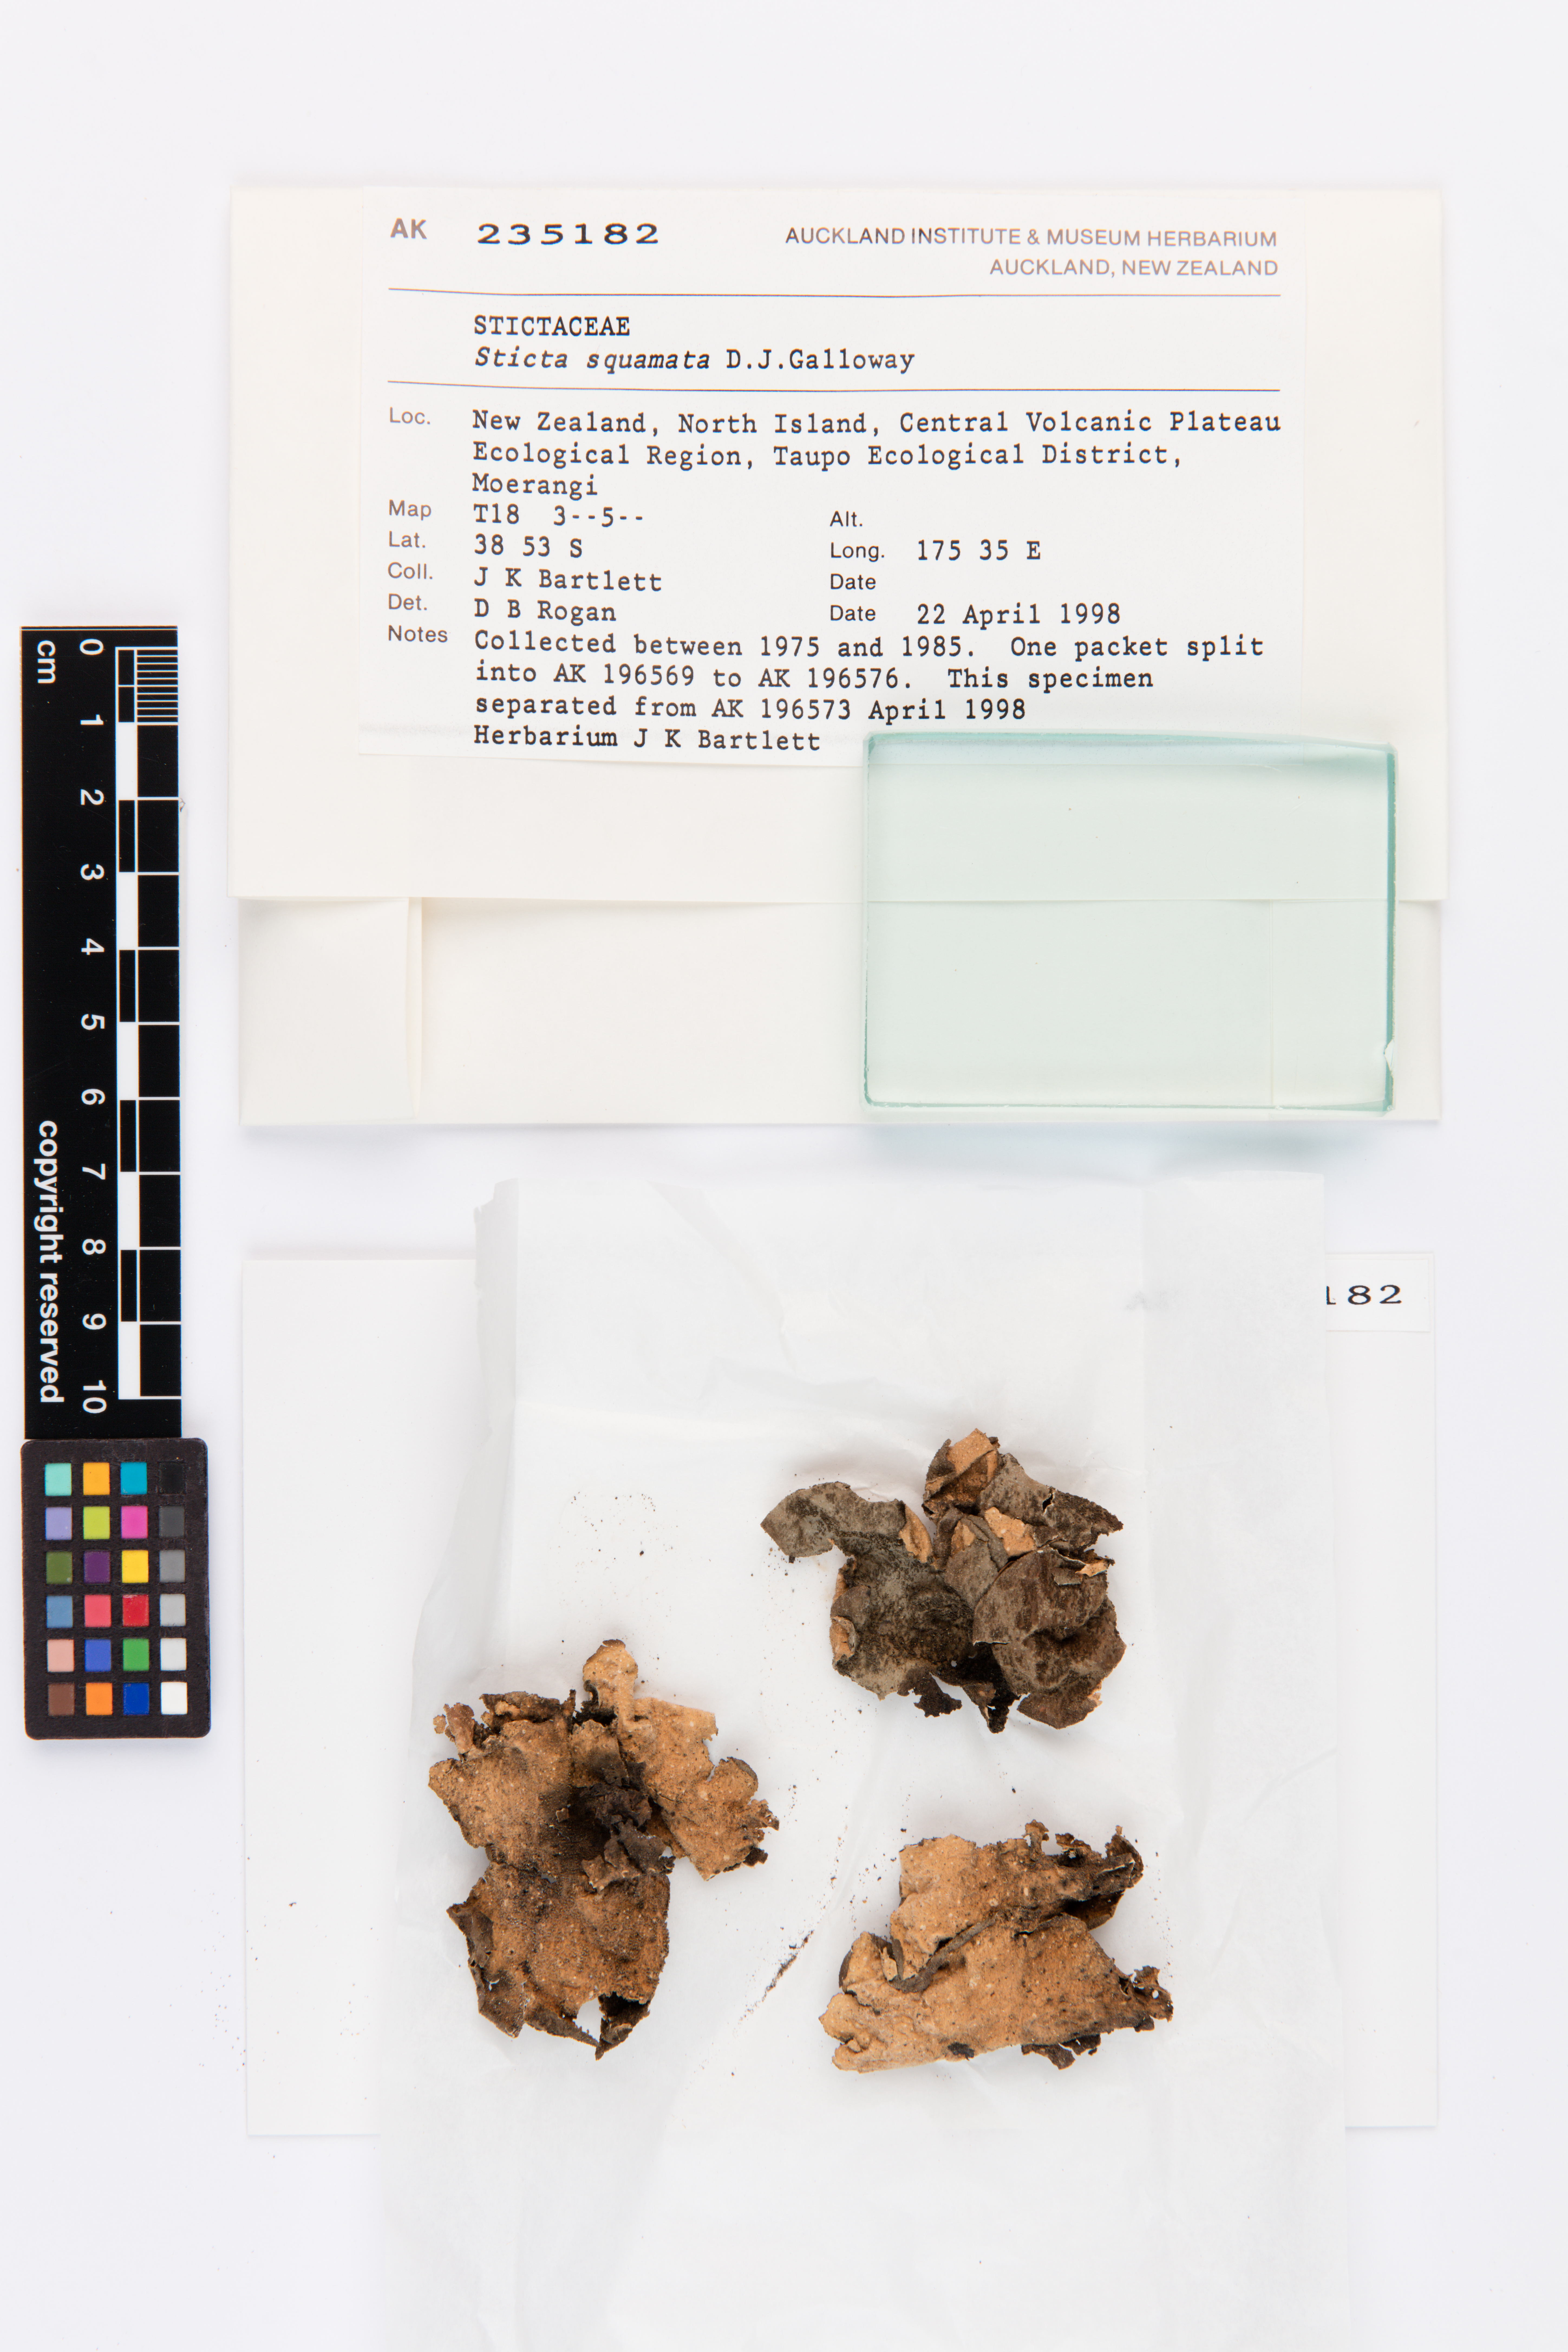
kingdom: Fungi
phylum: Ascomycota
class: Lecanoromycetes
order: Peltigerales
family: Lobariaceae
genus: Sticta
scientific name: Sticta squamata
